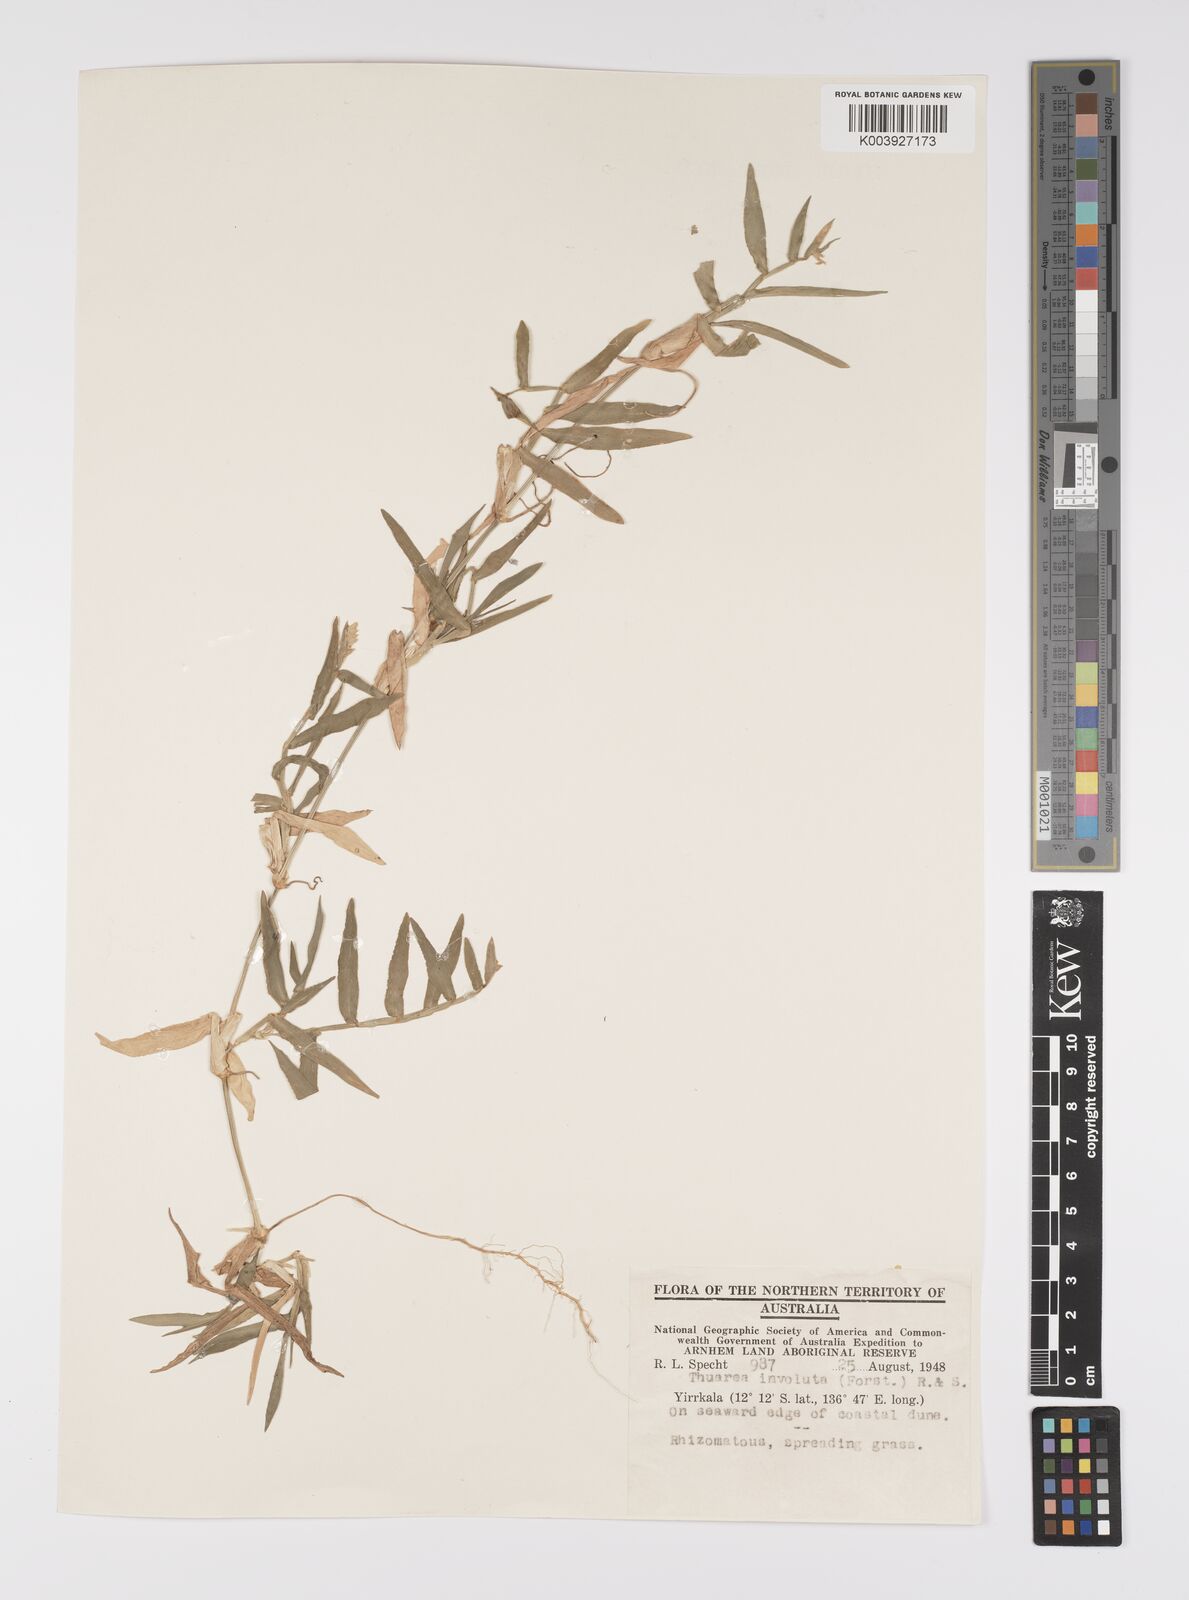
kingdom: Plantae
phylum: Tracheophyta
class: Liliopsida
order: Poales
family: Poaceae
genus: Thuarea
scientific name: Thuarea involuta
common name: Tropical beach grass
